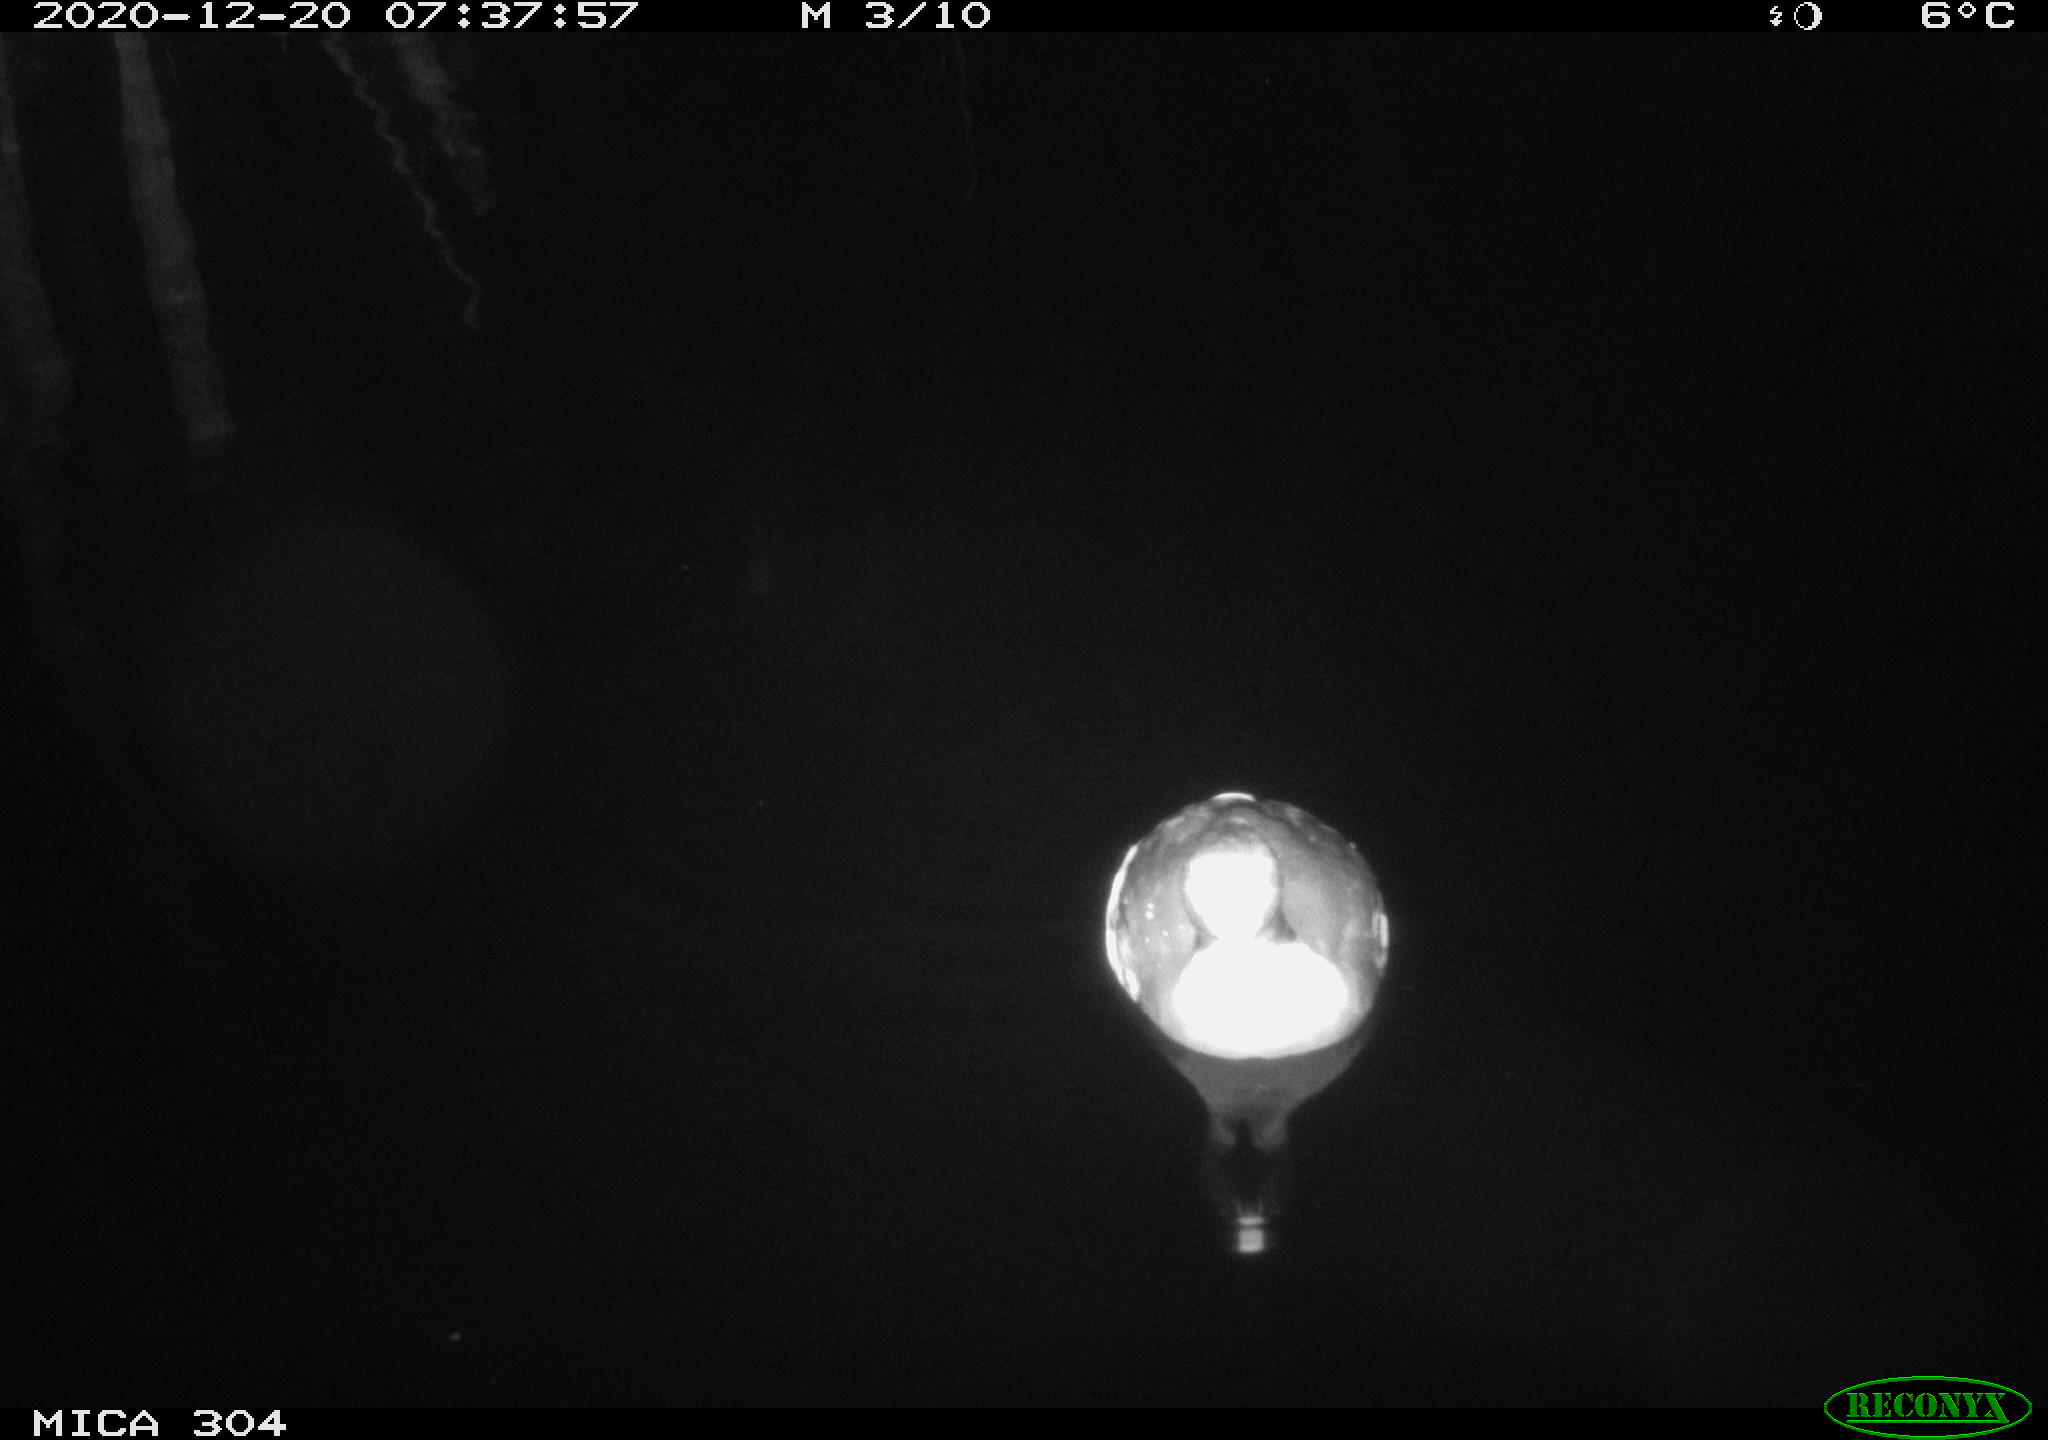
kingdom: Animalia
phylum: Chordata
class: Aves
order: Gruiformes
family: Rallidae
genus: Fulica
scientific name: Fulica atra
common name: Eurasian coot
